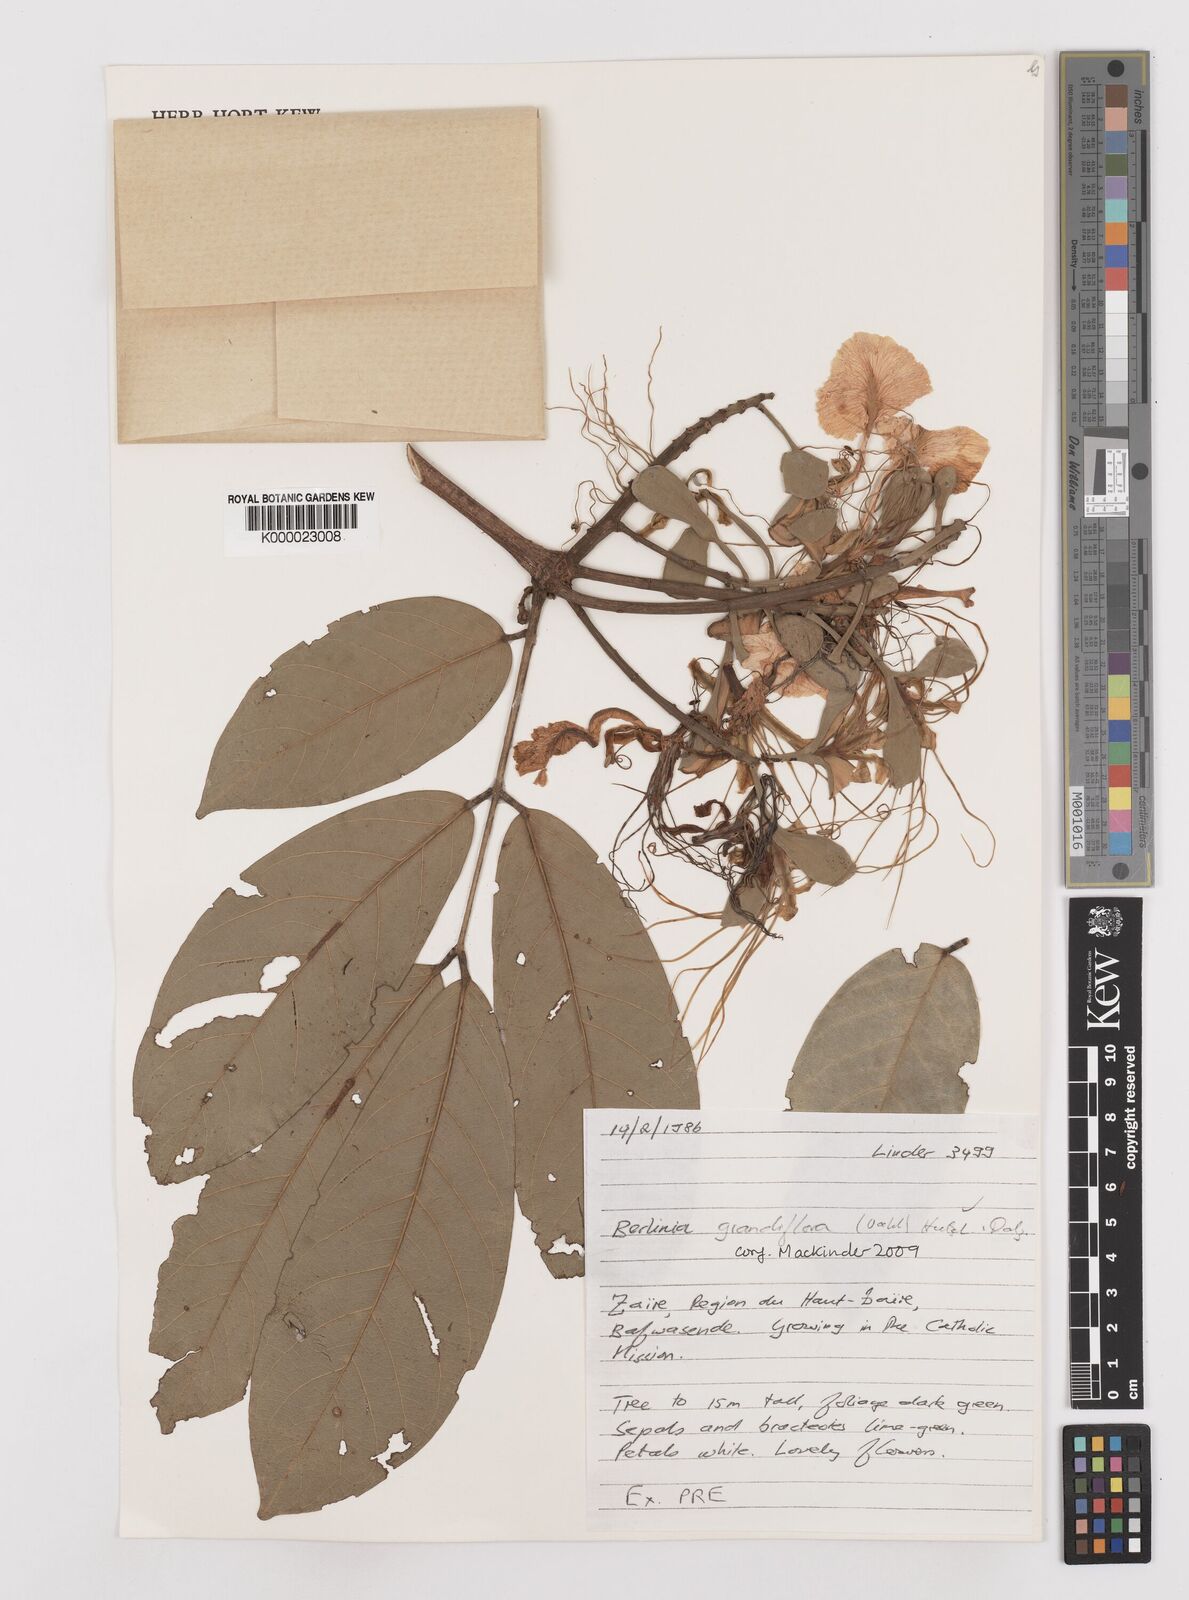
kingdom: Plantae
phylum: Tracheophyta
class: Magnoliopsida
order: Fabales
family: Fabaceae
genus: Berlinia
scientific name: Berlinia phenacoa
